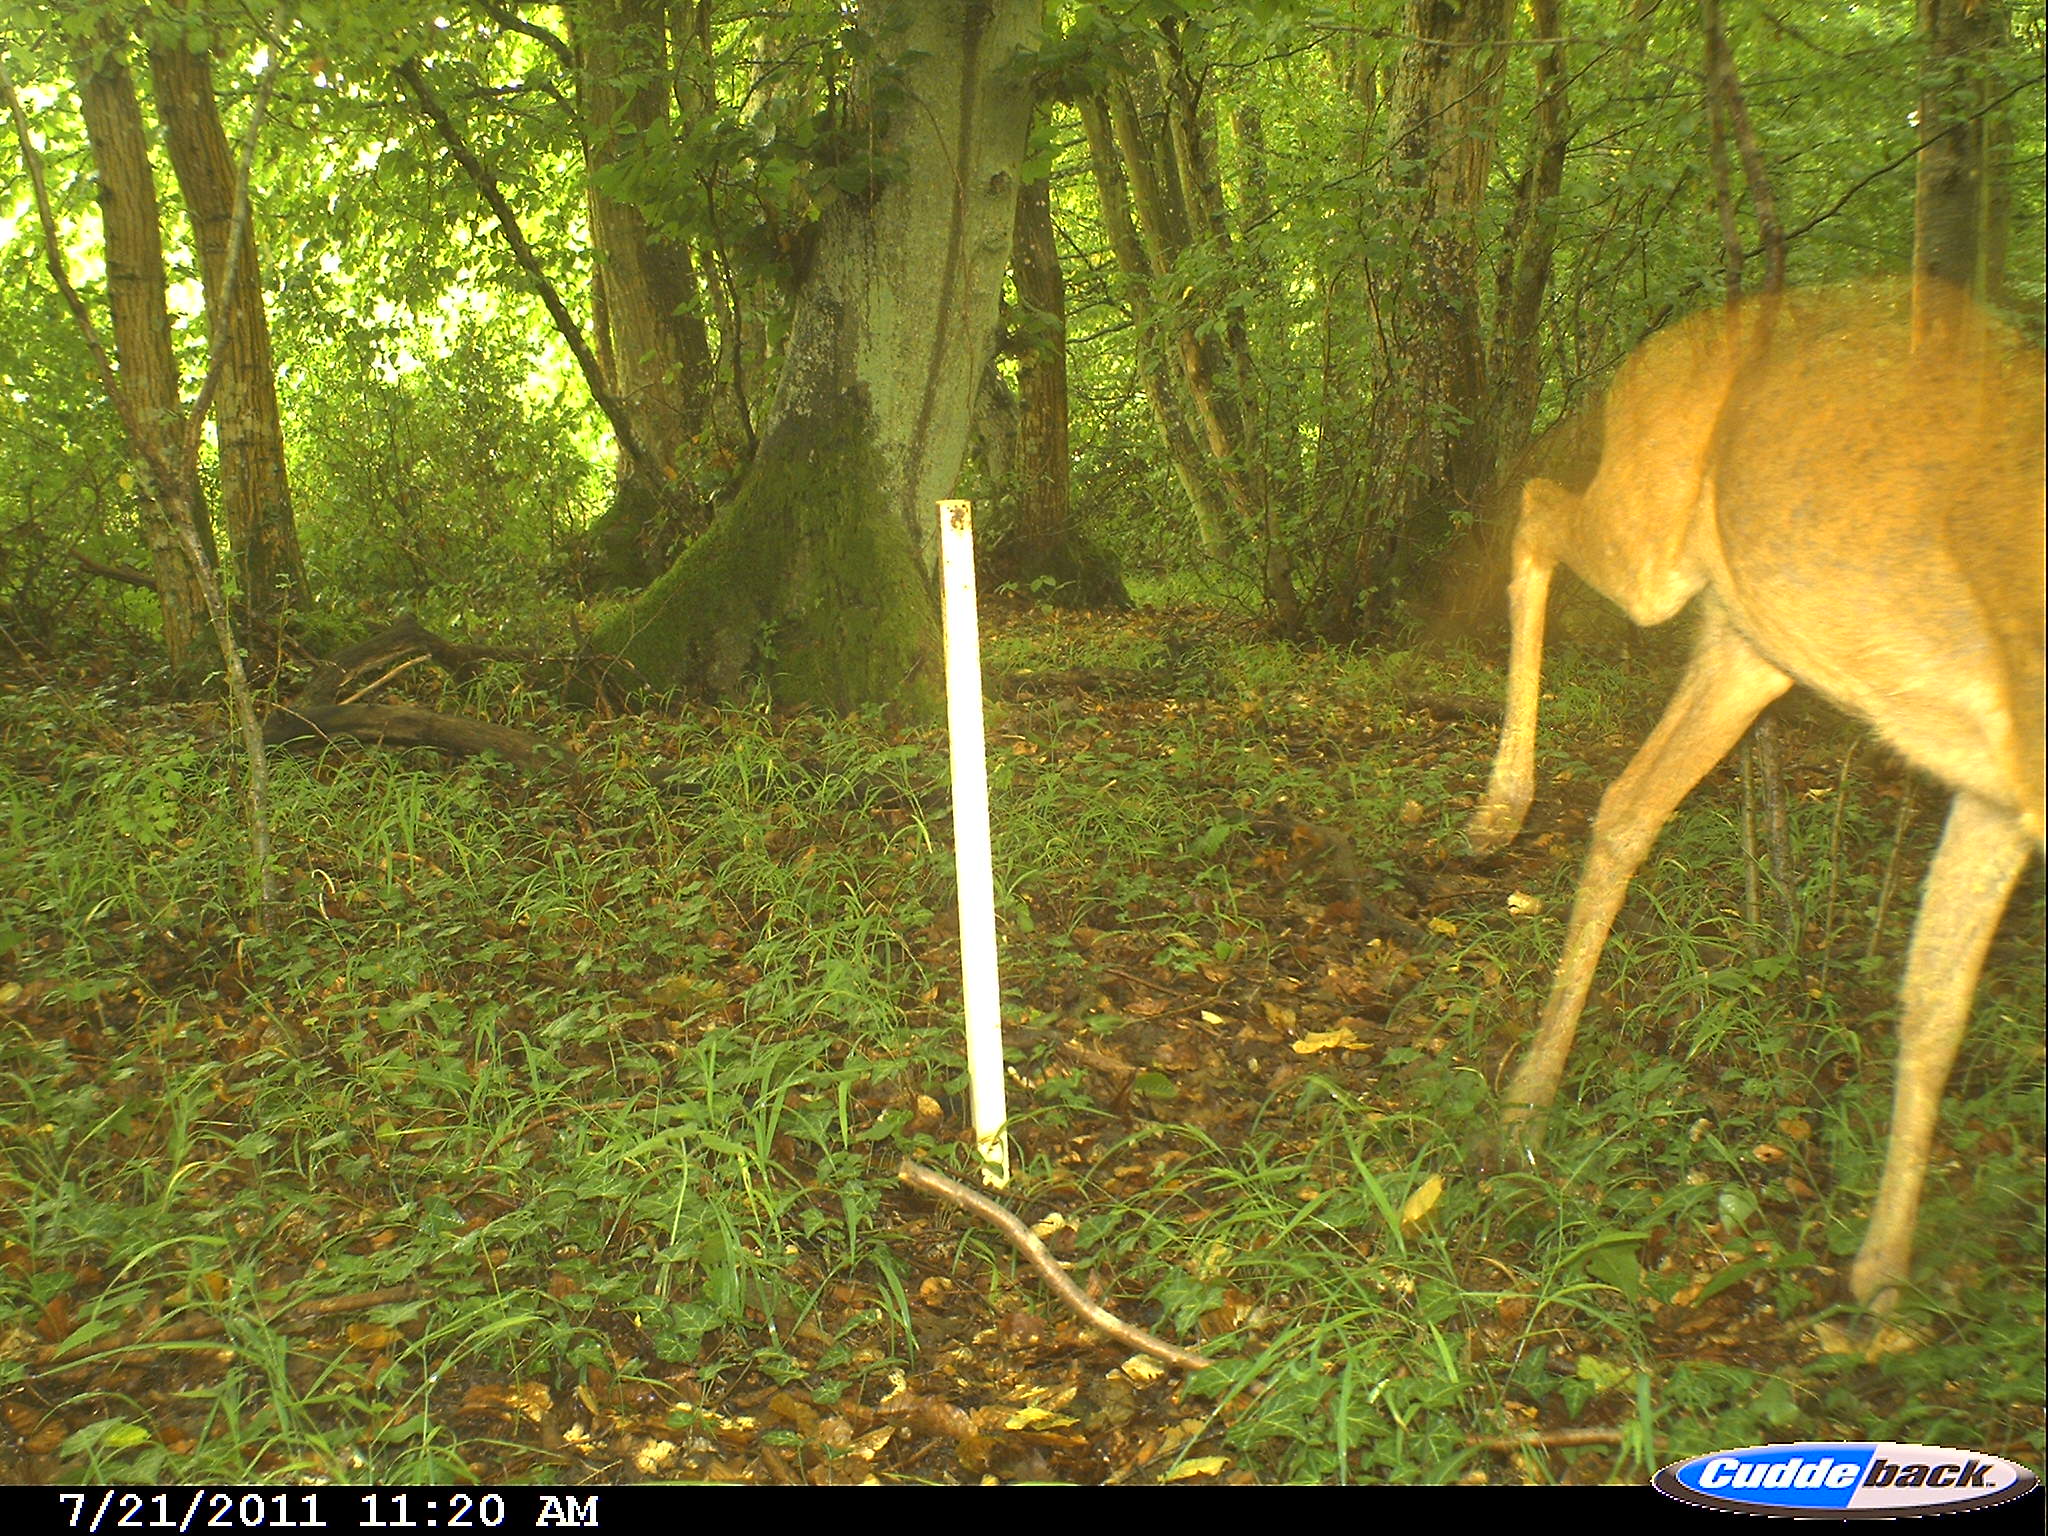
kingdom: Animalia
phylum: Chordata
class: Mammalia
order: Artiodactyla
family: Cervidae
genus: Capreolus
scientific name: Capreolus capreolus
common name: Western roe deer
